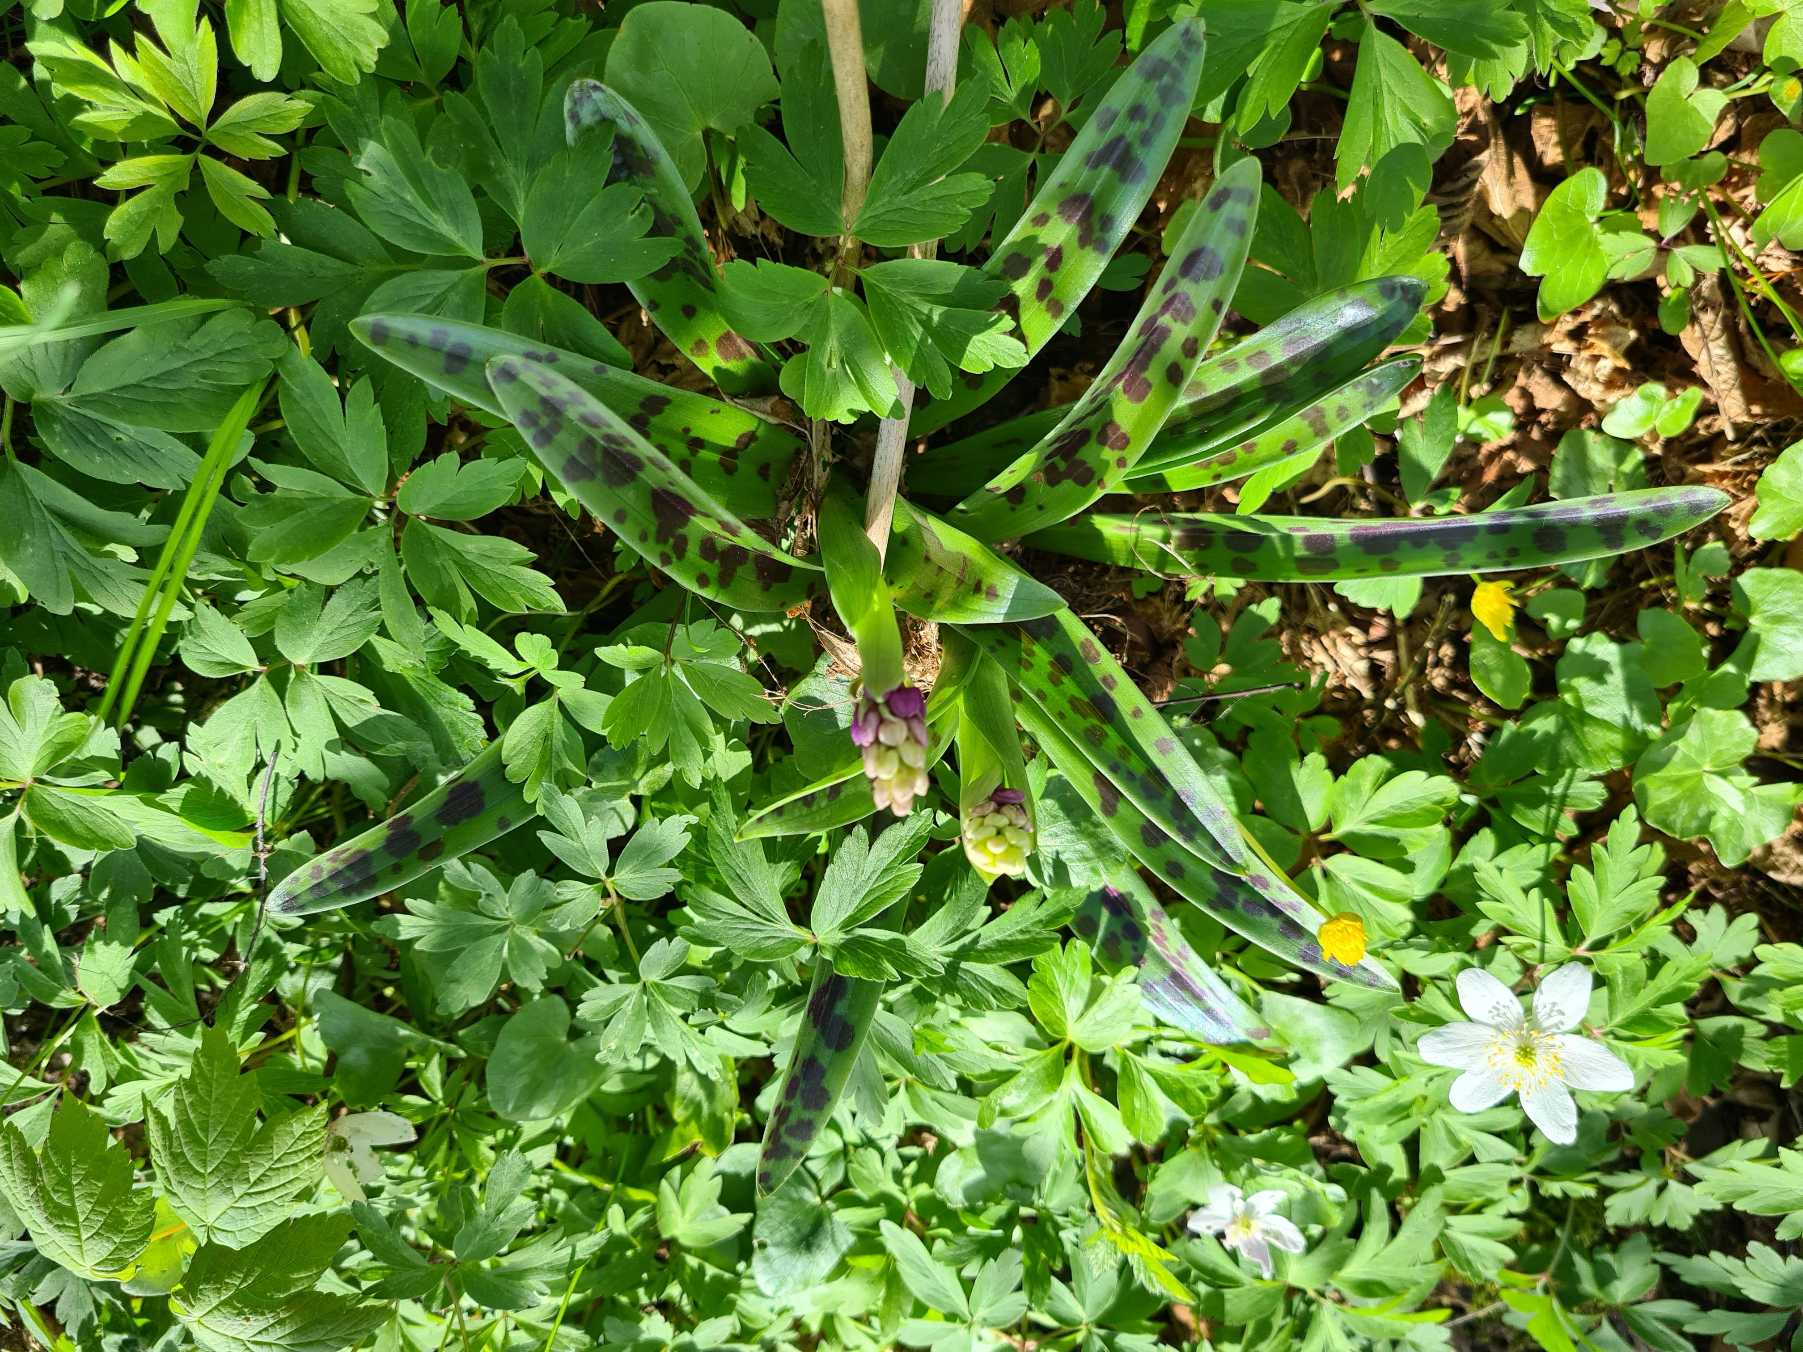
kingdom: Plantae
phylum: Tracheophyta
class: Liliopsida
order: Asparagales
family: Orchidaceae
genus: Orchis
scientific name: Orchis mascula
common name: Tyndakset gøgeurt
